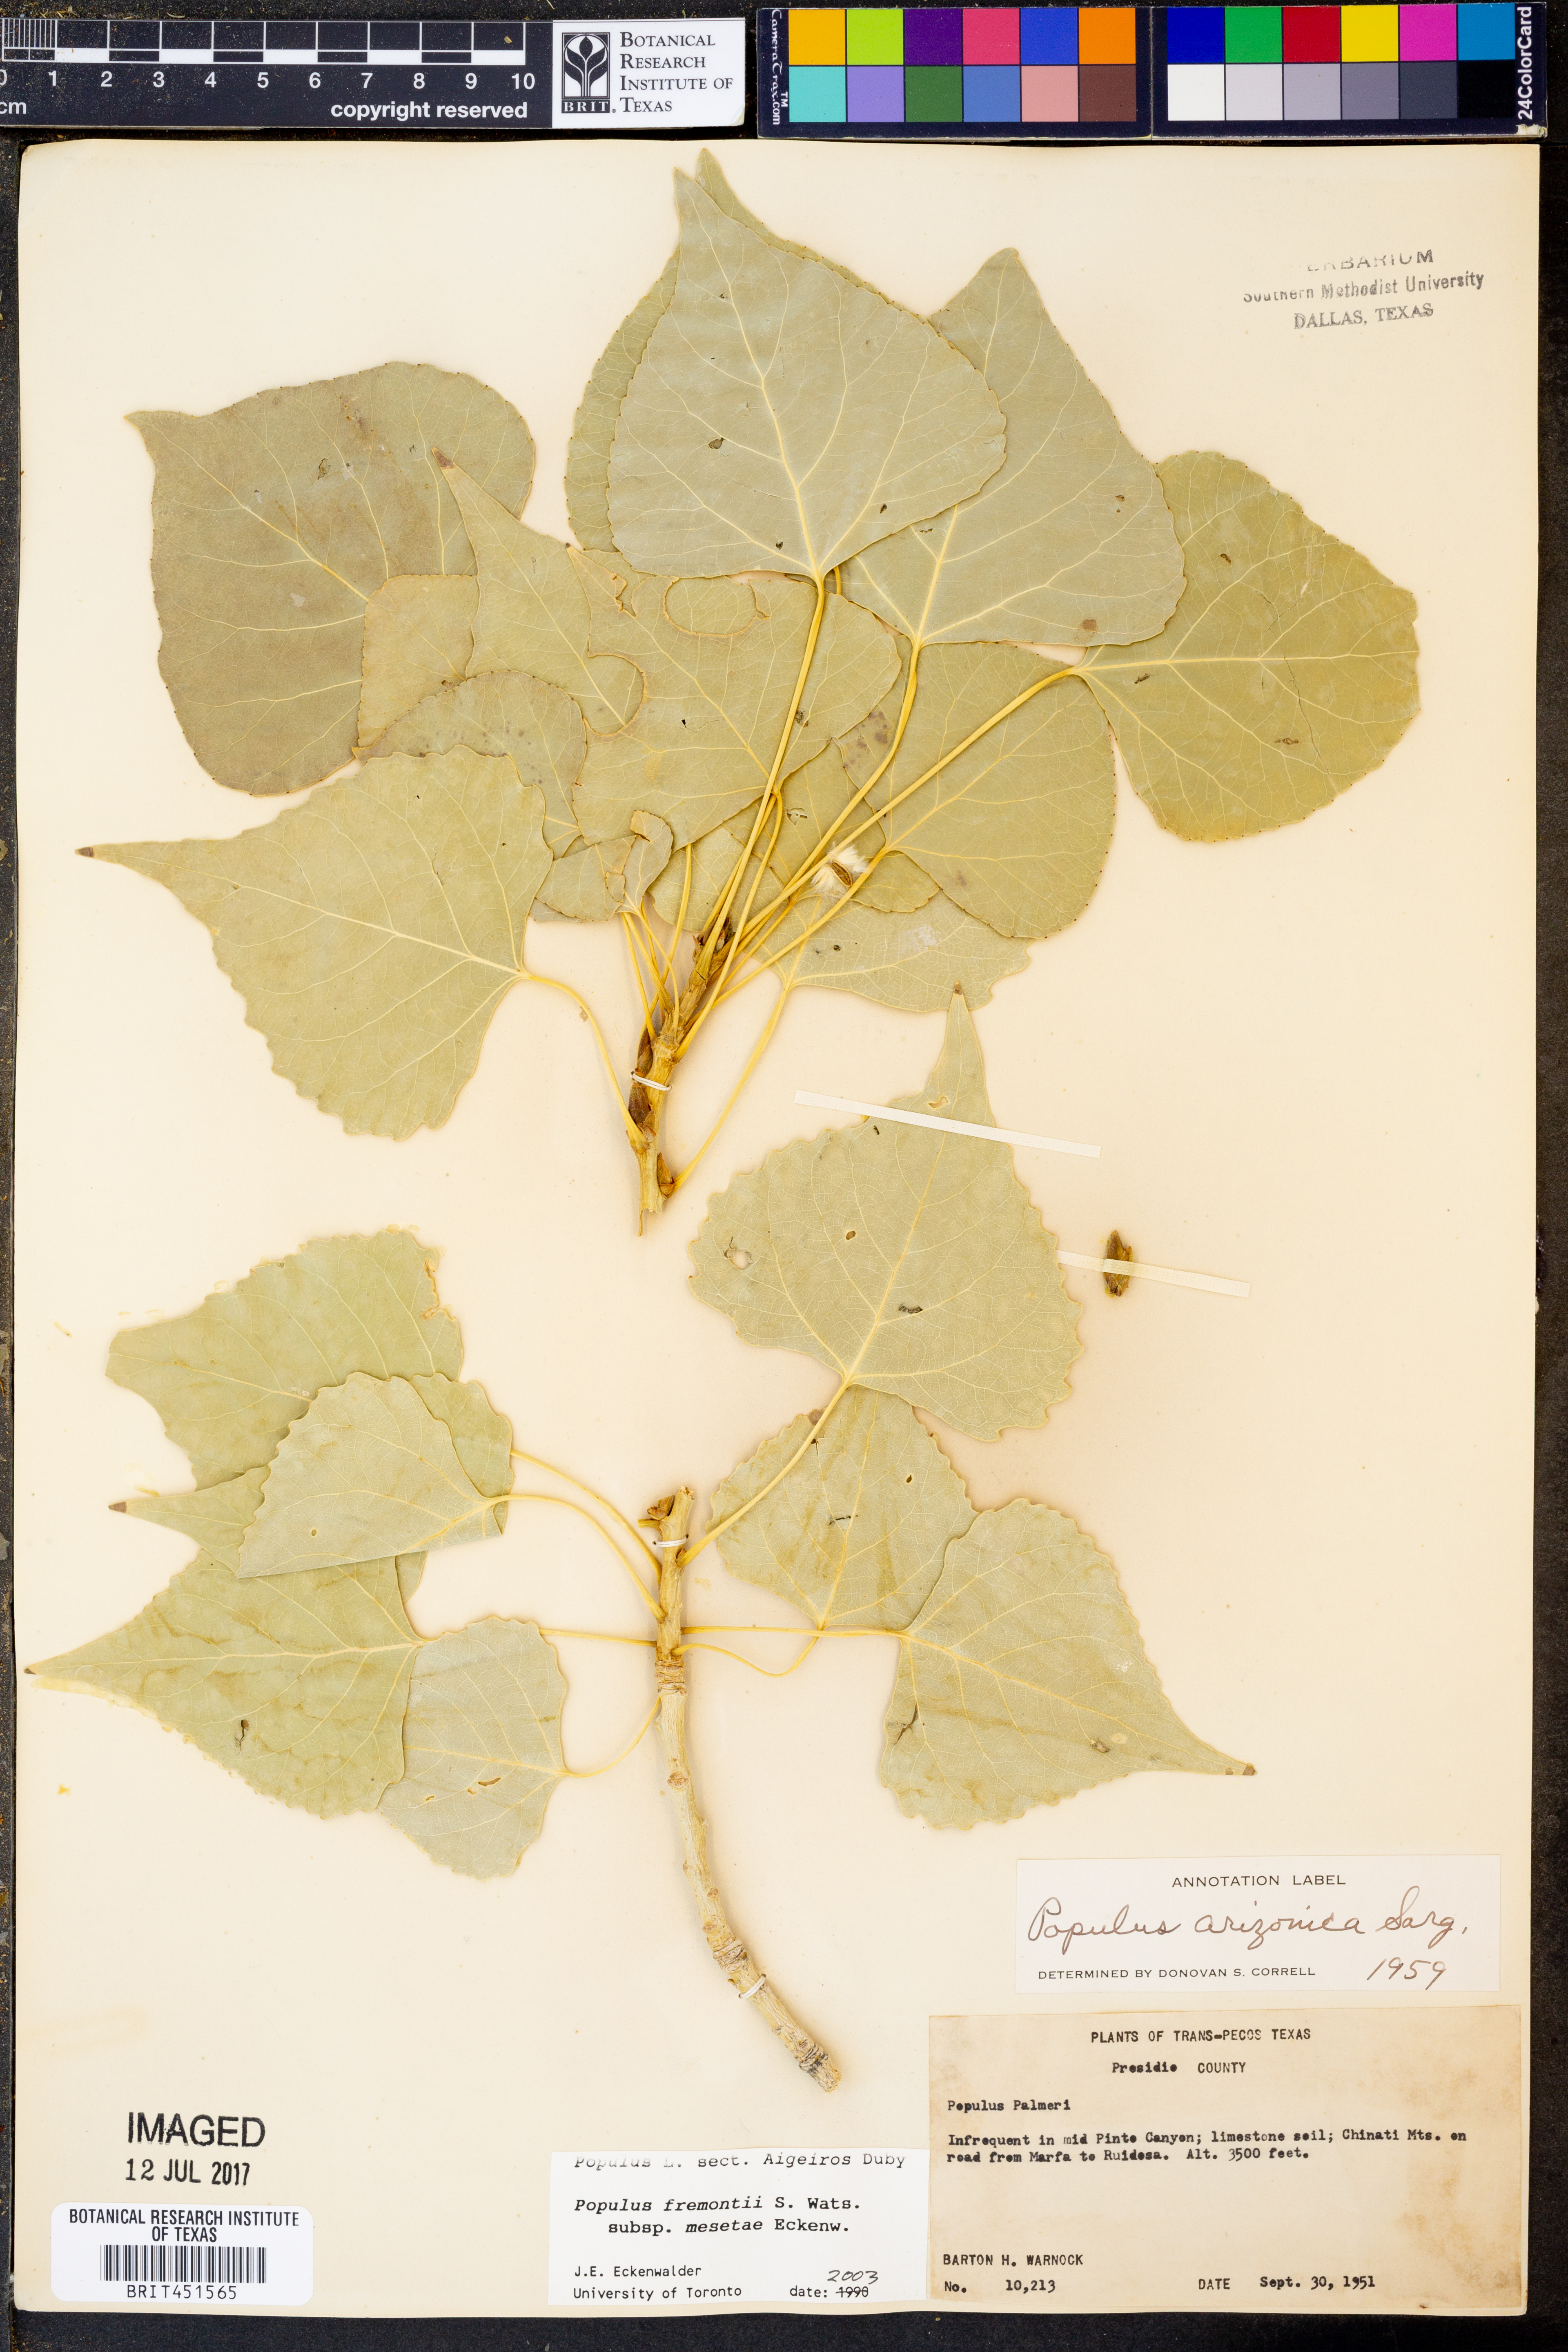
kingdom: Plantae
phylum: Tracheophyta
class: Magnoliopsida
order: Malpighiales
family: Salicaceae
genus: Populus
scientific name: Populus fremontii
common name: Fremont's cottonwood
